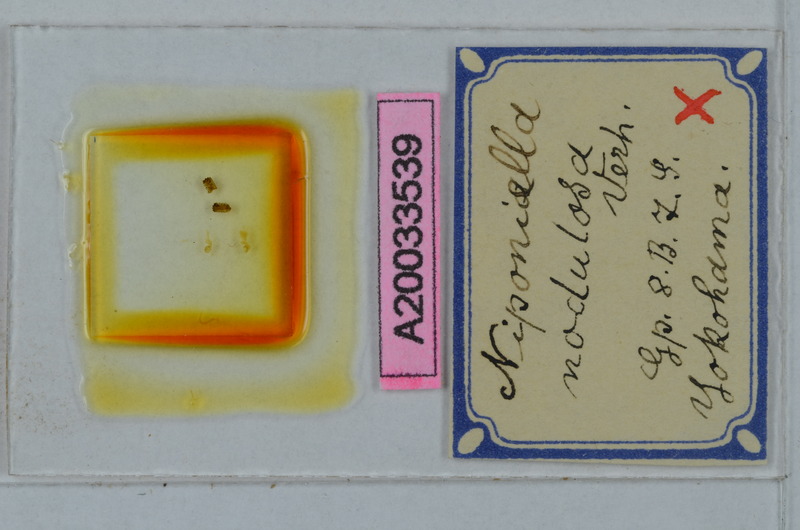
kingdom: Animalia
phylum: Arthropoda
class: Diplopoda
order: Polydesmida
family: Cryptodesmidae
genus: Niponia
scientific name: Niponia nodulosa
